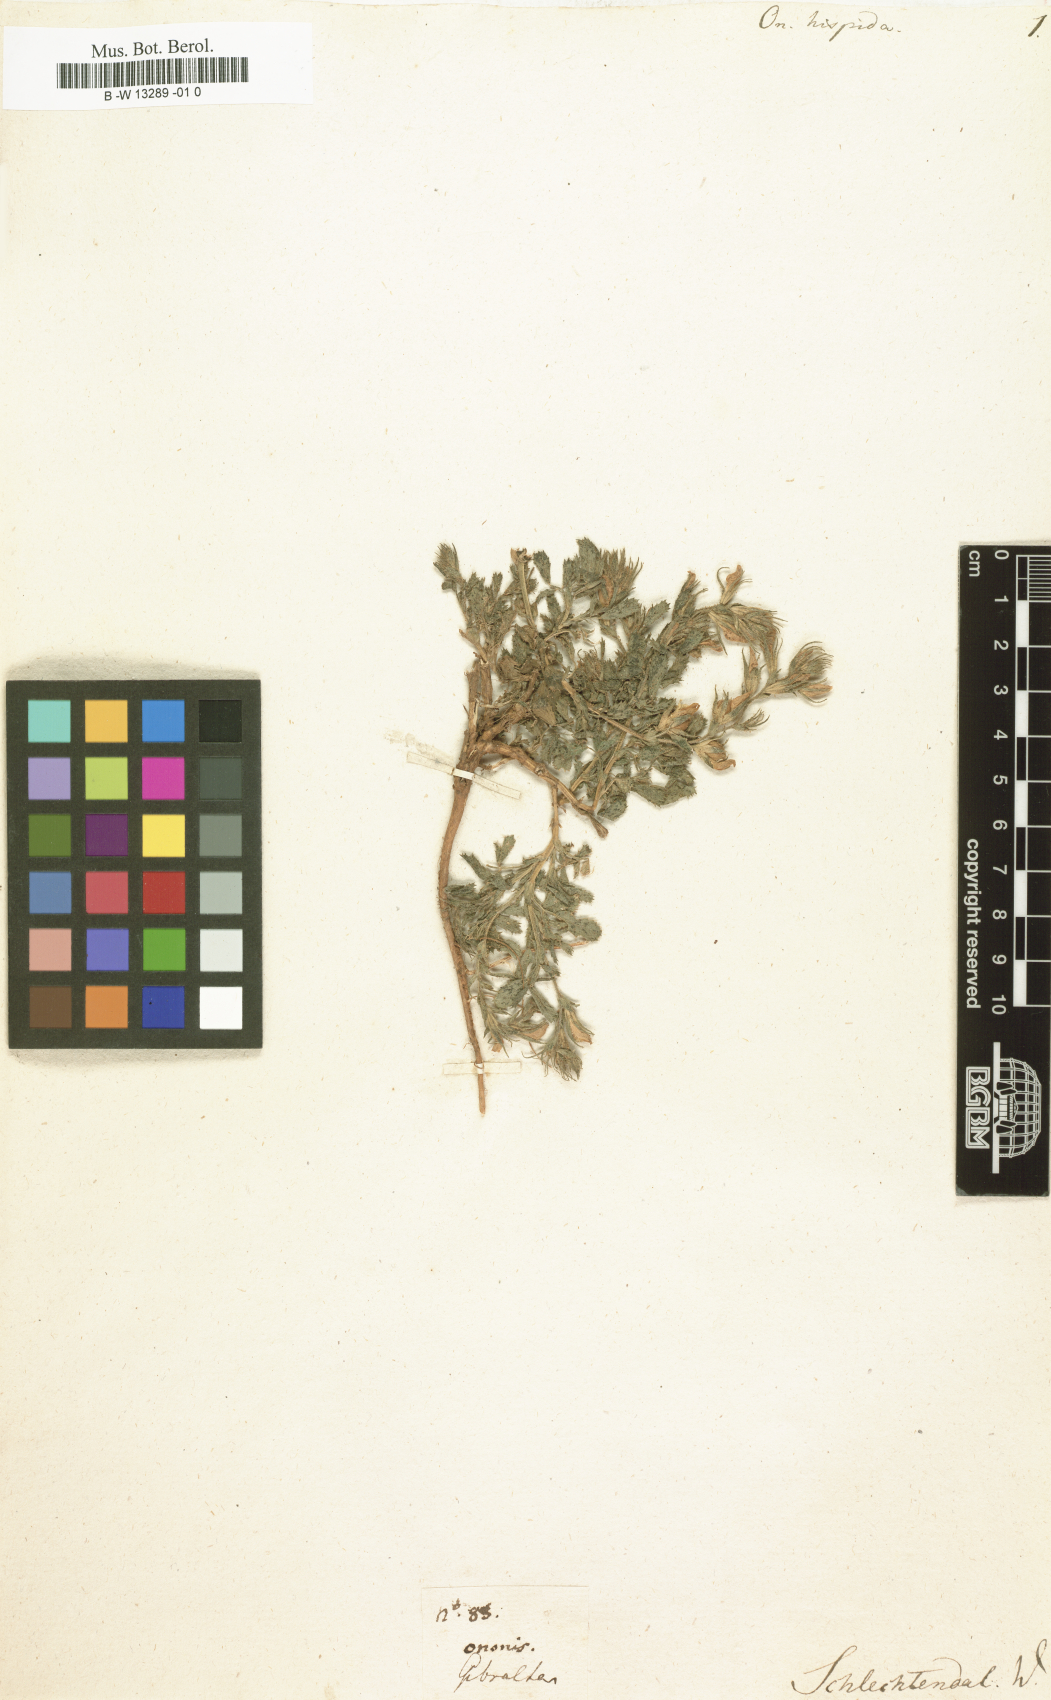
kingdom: Plantae
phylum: Tracheophyta
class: Magnoliopsida
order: Fabales
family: Fabaceae
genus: Ononis
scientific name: Ononis hispida
